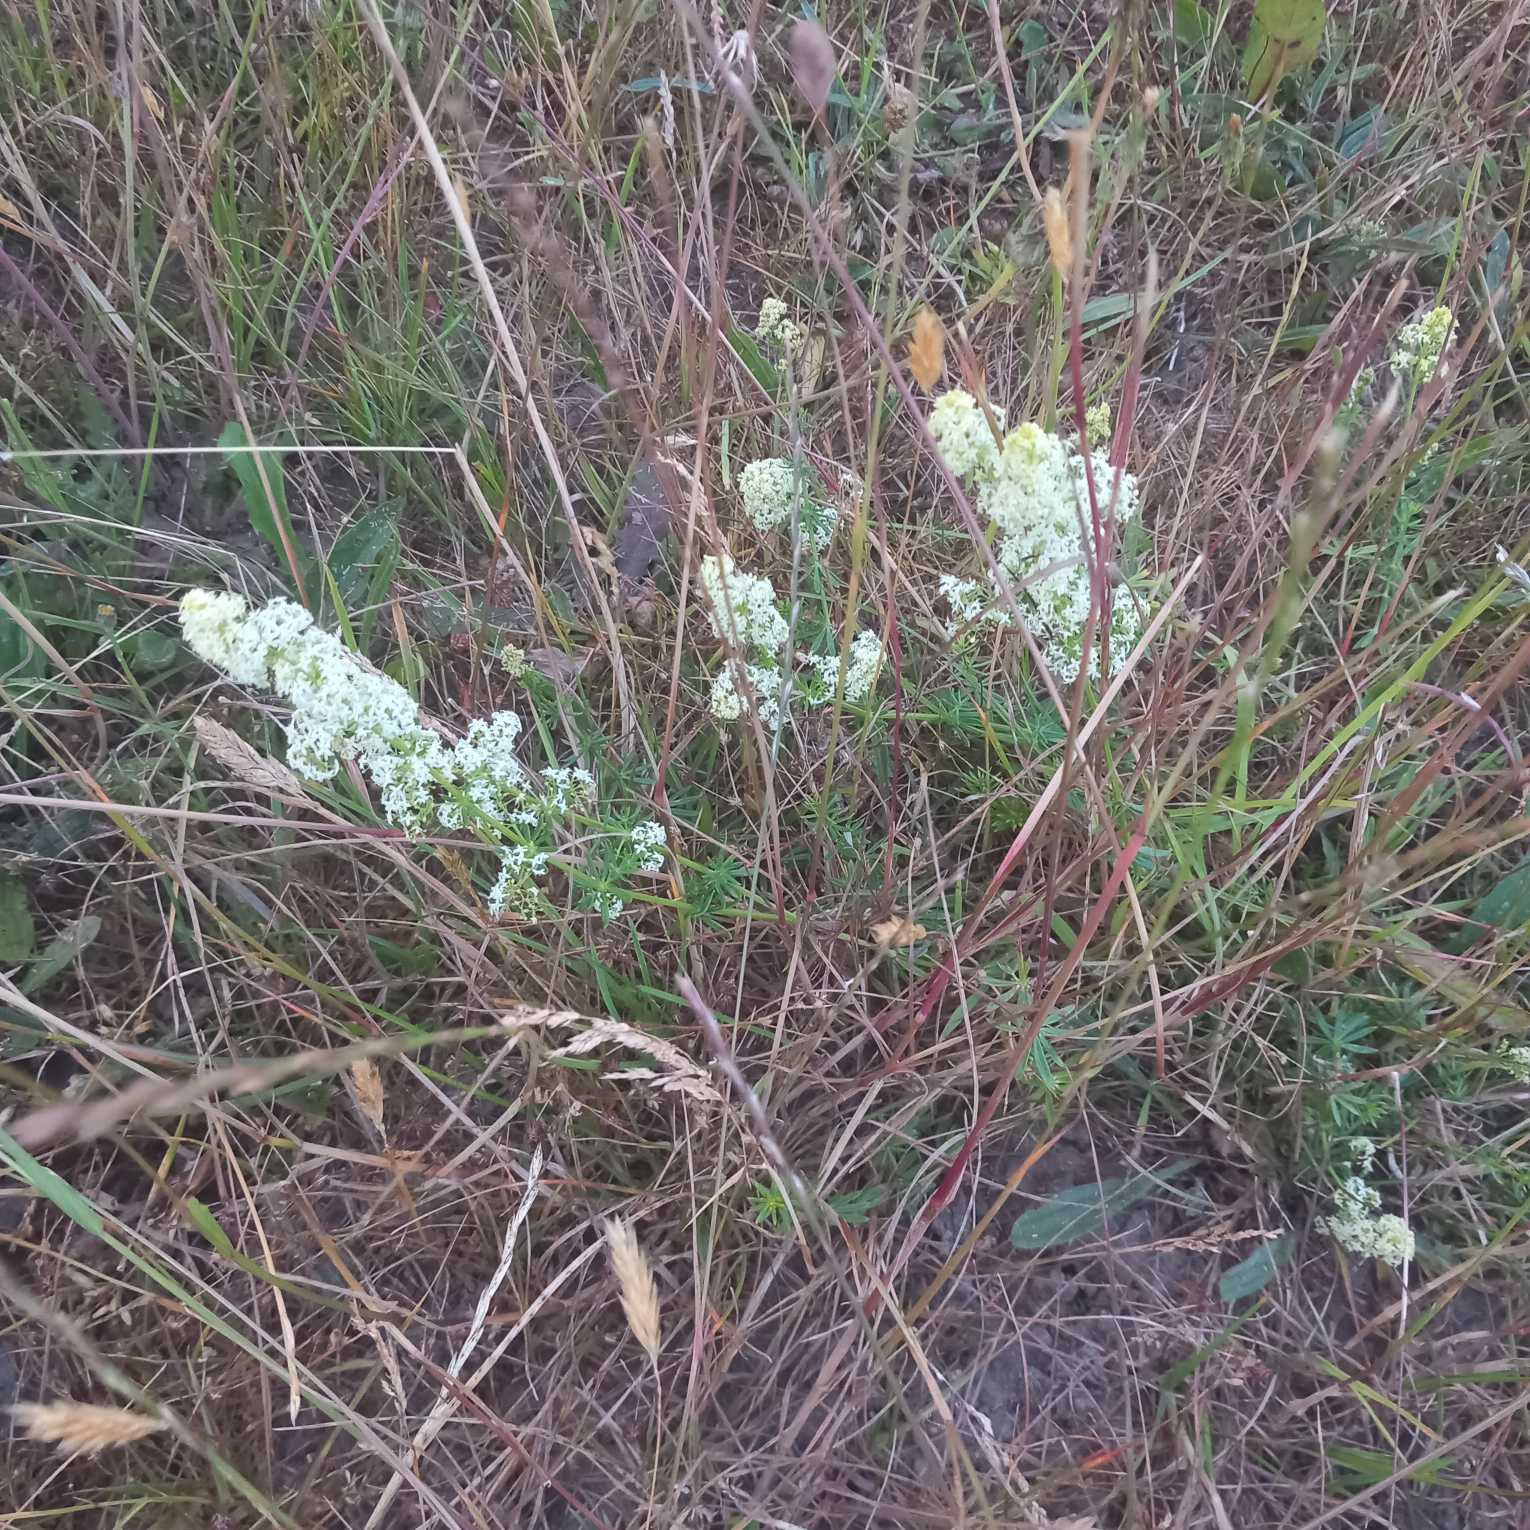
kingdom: Plantae
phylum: Tracheophyta
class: Magnoliopsida
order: Gentianales
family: Rubiaceae
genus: Galium
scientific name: Galium mollugo
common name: Hvid snerre
